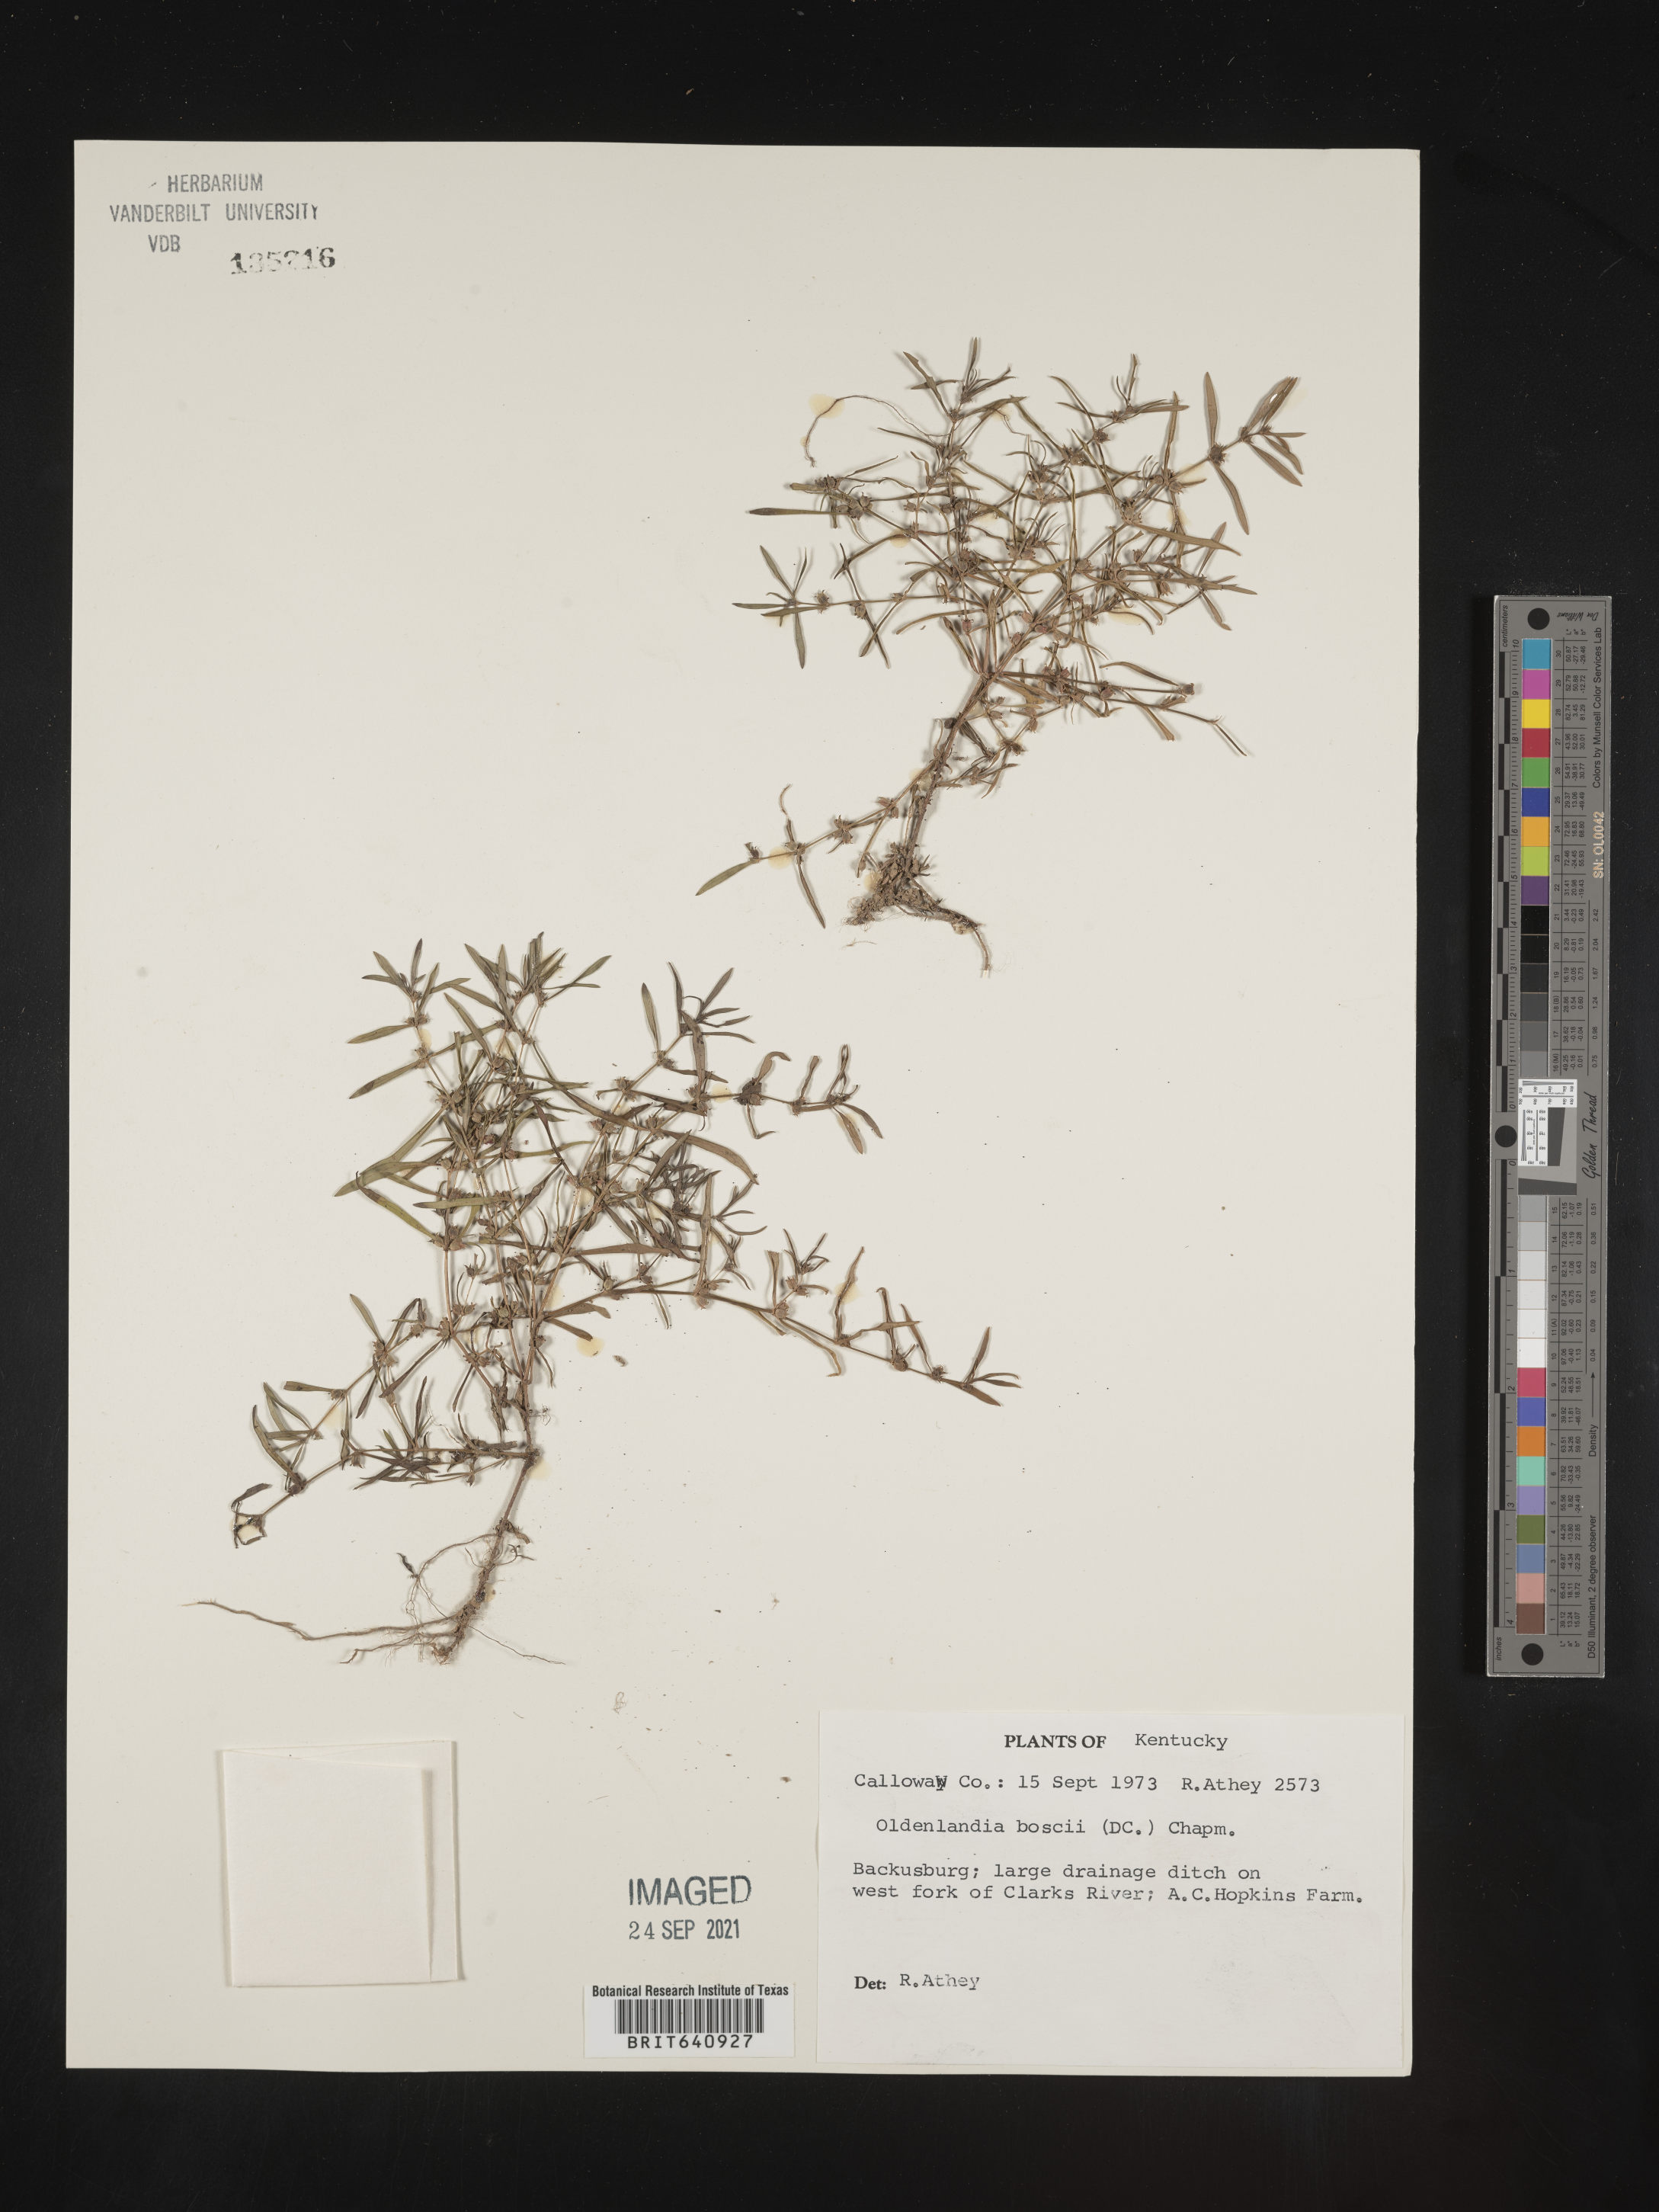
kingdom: Plantae
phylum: Tracheophyta
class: Magnoliopsida
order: Gentianales
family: Rubiaceae
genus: Oldenlandia
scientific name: Oldenlandia boscii
